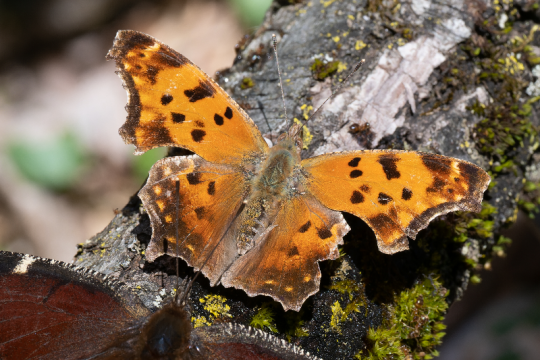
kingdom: Animalia
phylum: Arthropoda
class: Insecta
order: Lepidoptera
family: Nymphalidae
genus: Polygonia
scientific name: Polygonia comma
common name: Eastern Comma
